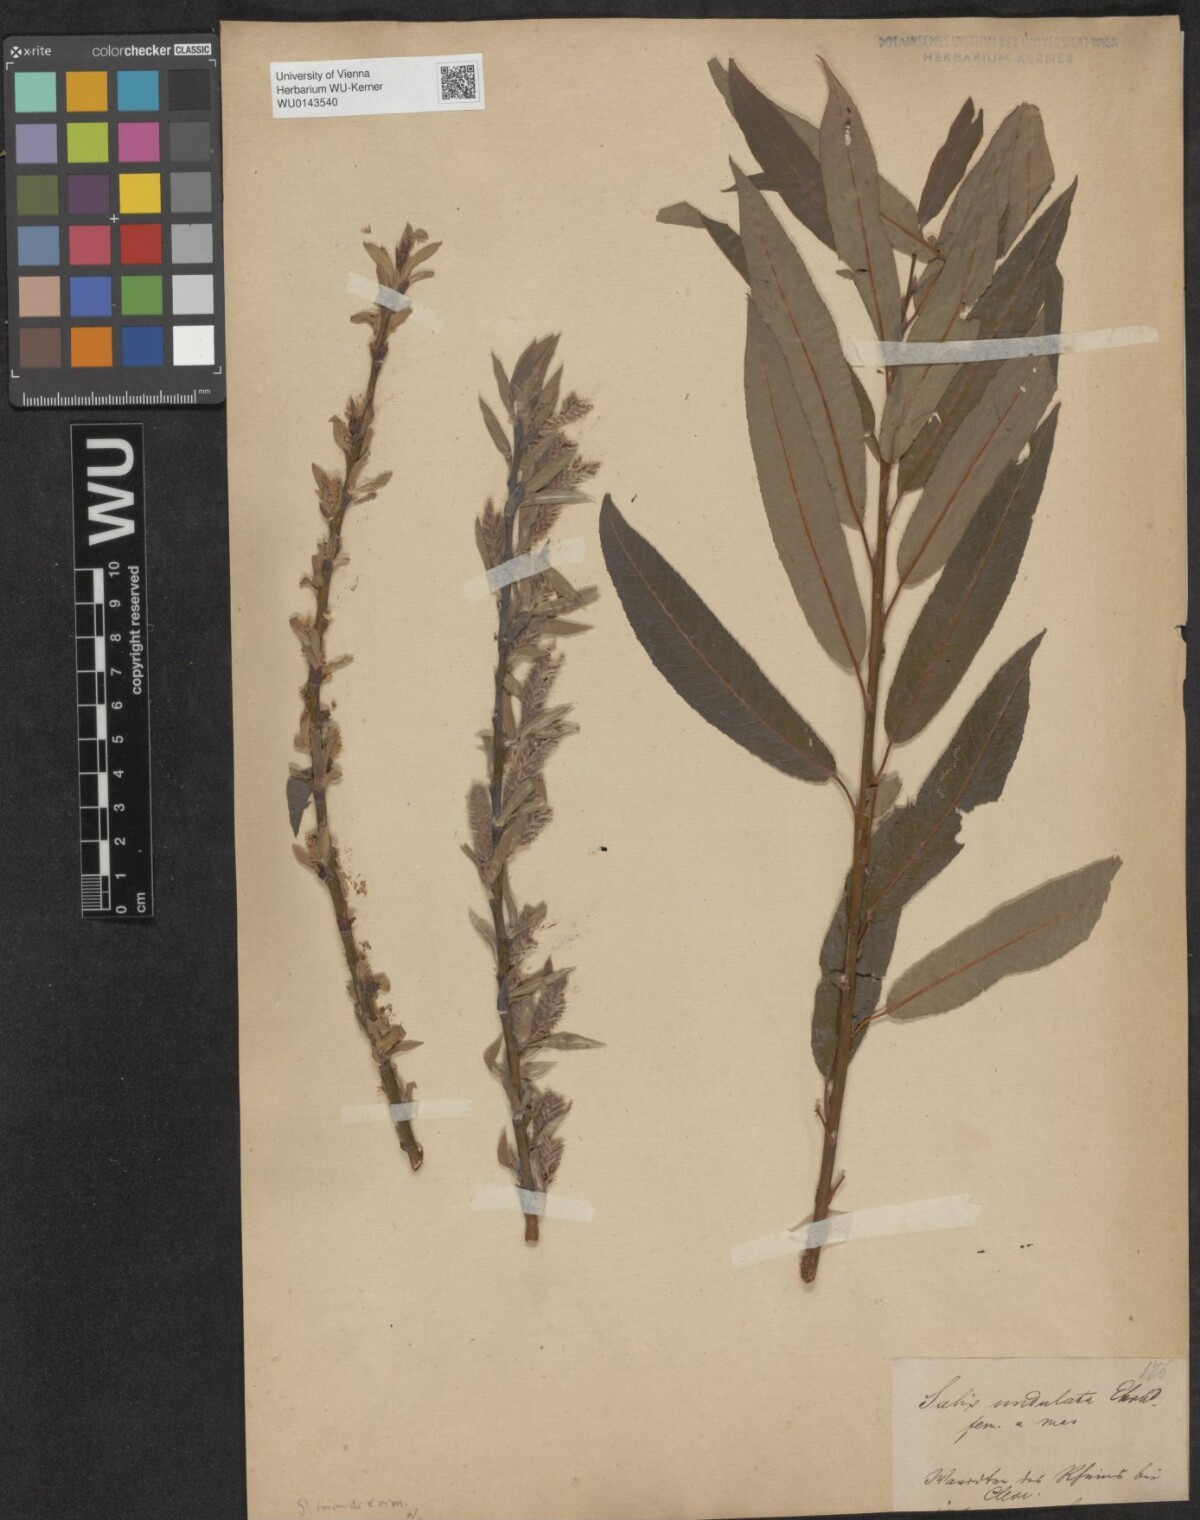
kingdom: Plantae
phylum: Tracheophyta
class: Magnoliopsida
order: Malpighiales
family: Salicaceae
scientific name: Salicaceae
